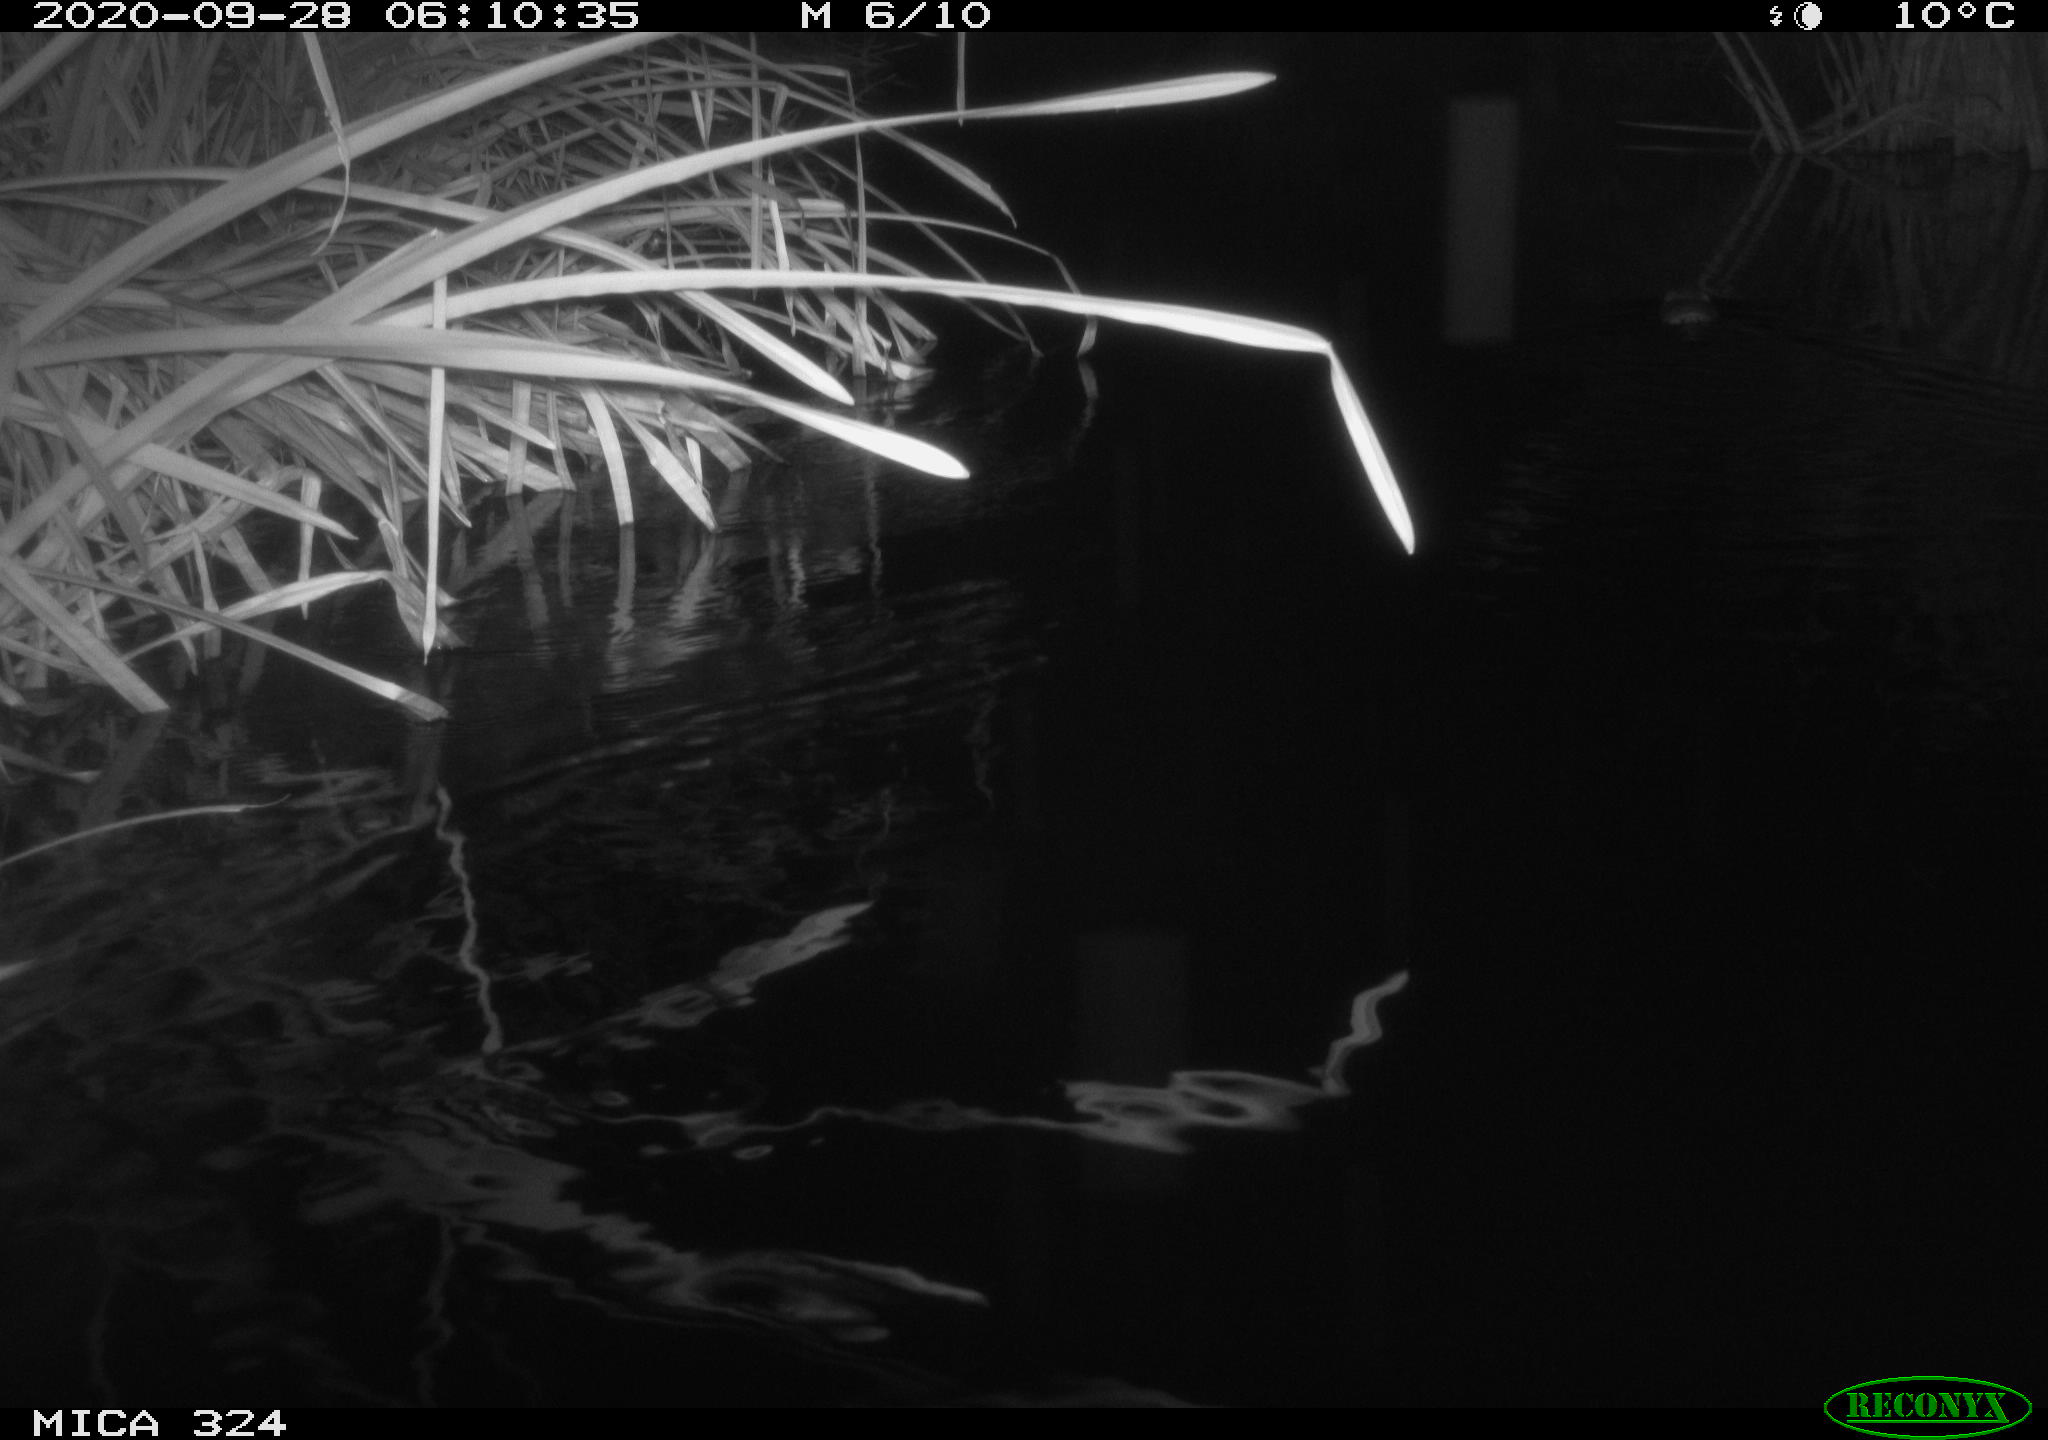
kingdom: Animalia
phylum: Chordata
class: Mammalia
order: Rodentia
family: Cricetidae
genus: Ondatra
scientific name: Ondatra zibethicus
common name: Muskrat
